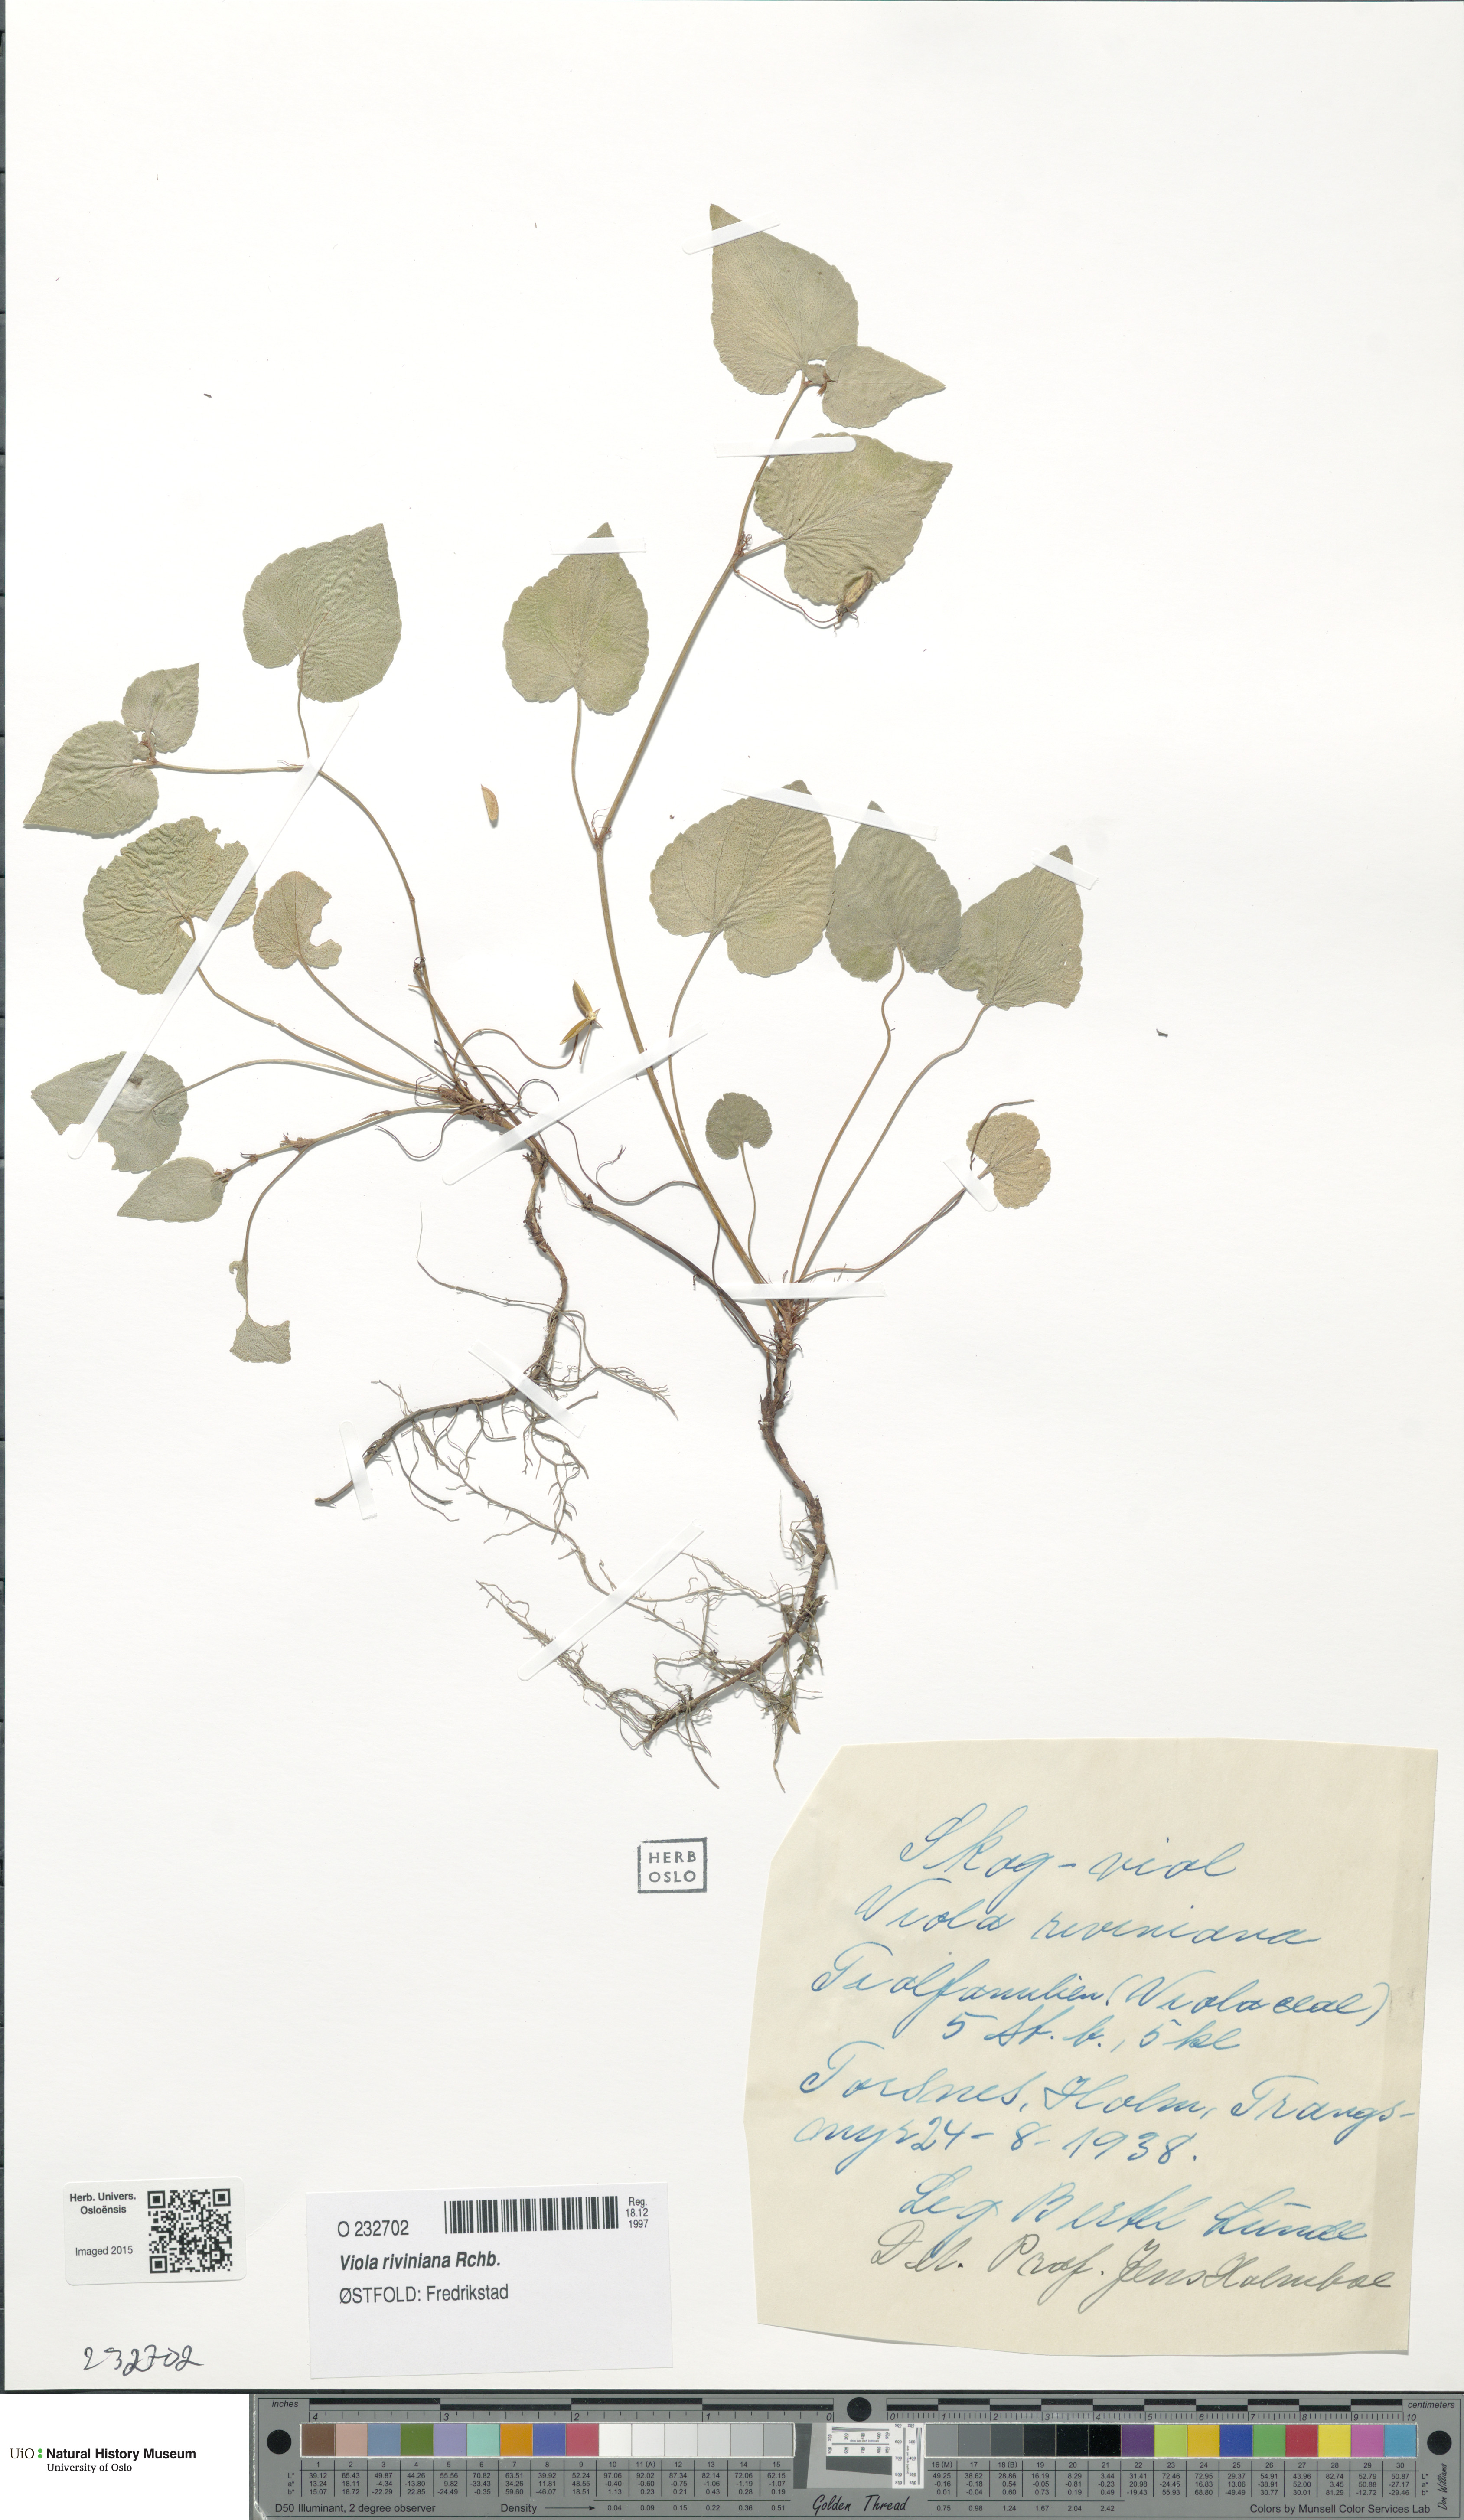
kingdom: Plantae
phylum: Tracheophyta
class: Magnoliopsida
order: Malpighiales
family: Violaceae
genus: Viola
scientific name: Viola riviniana
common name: Common dog-violet
